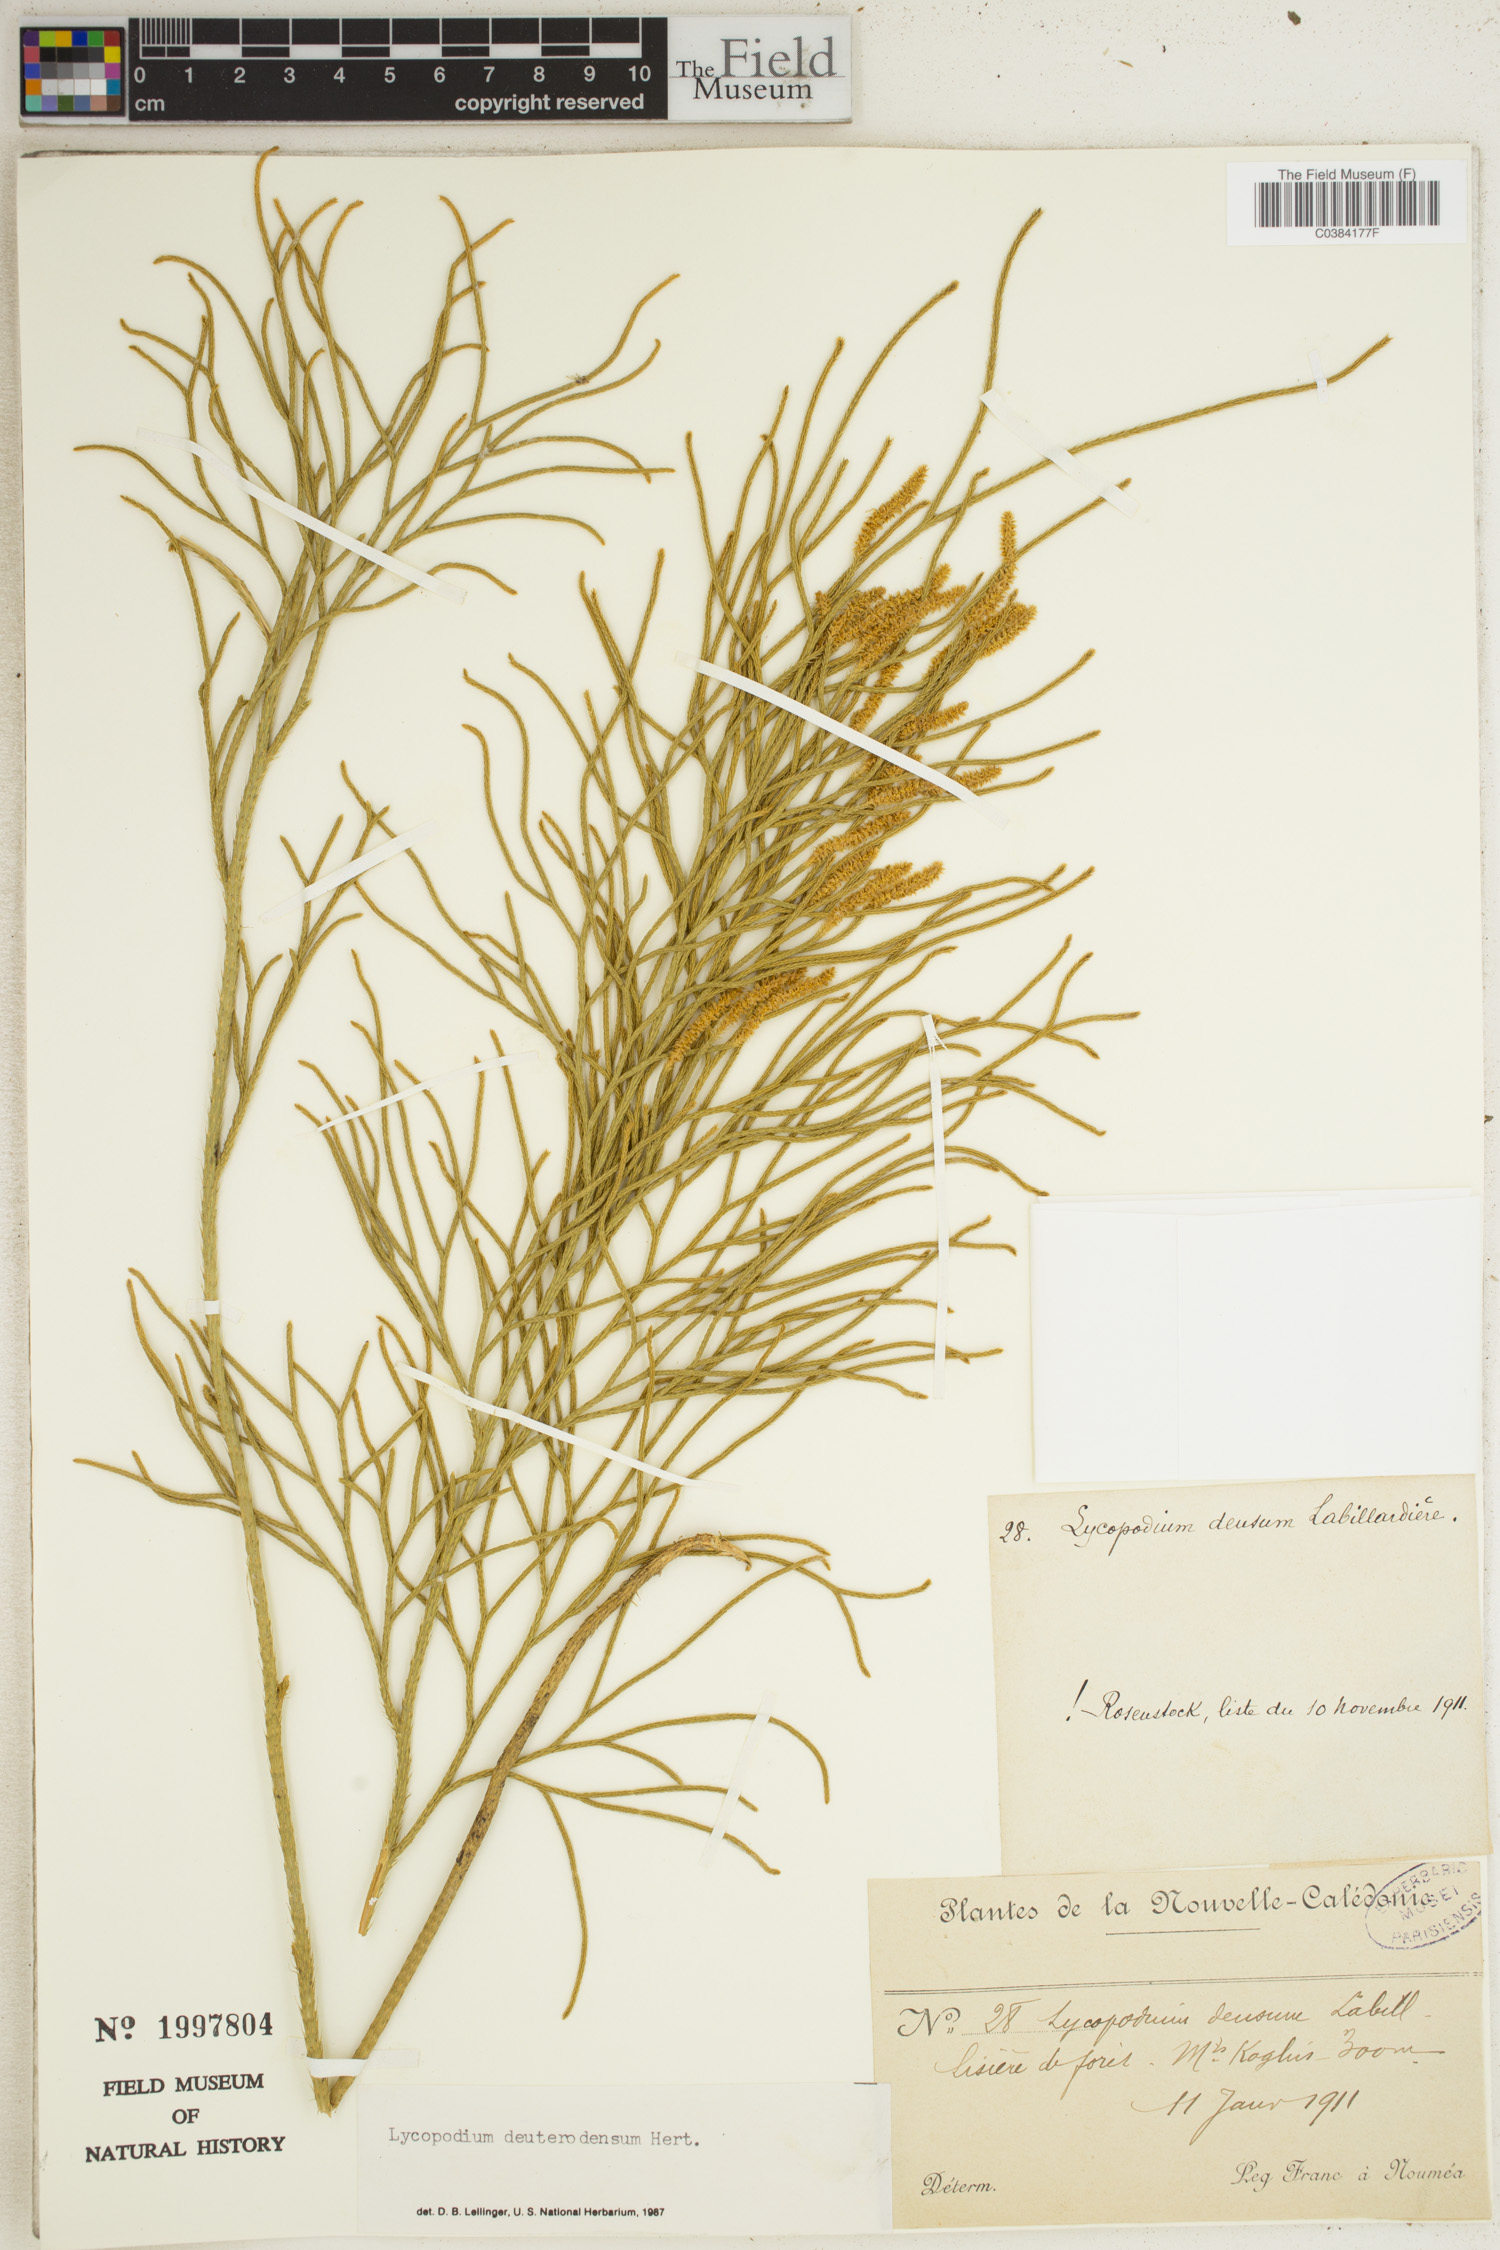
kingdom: Plantae
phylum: Tracheophyta
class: Lycopodiopsida
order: Lycopodiales
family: Lycopodiaceae
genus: Pseudolycopodium
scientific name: Pseudolycopodium densum
